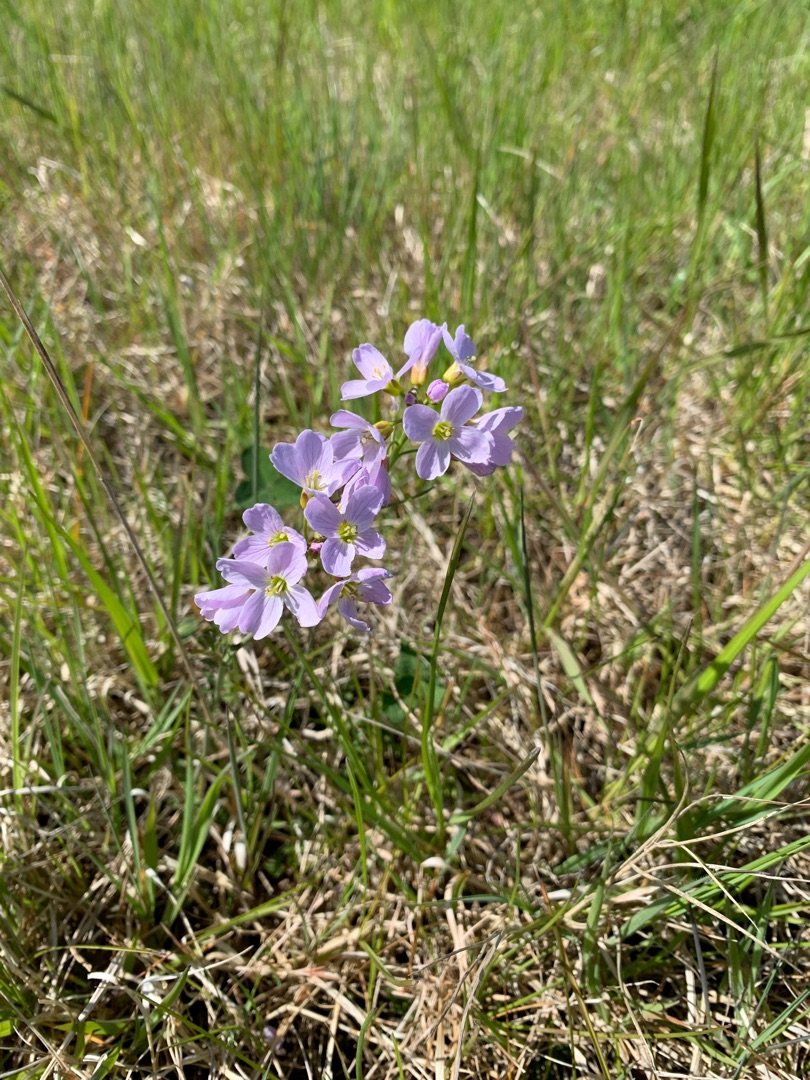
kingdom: Plantae
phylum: Tracheophyta
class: Magnoliopsida
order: Brassicales
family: Brassicaceae
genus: Cardamine
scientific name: Cardamine pratensis
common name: Engkarse
